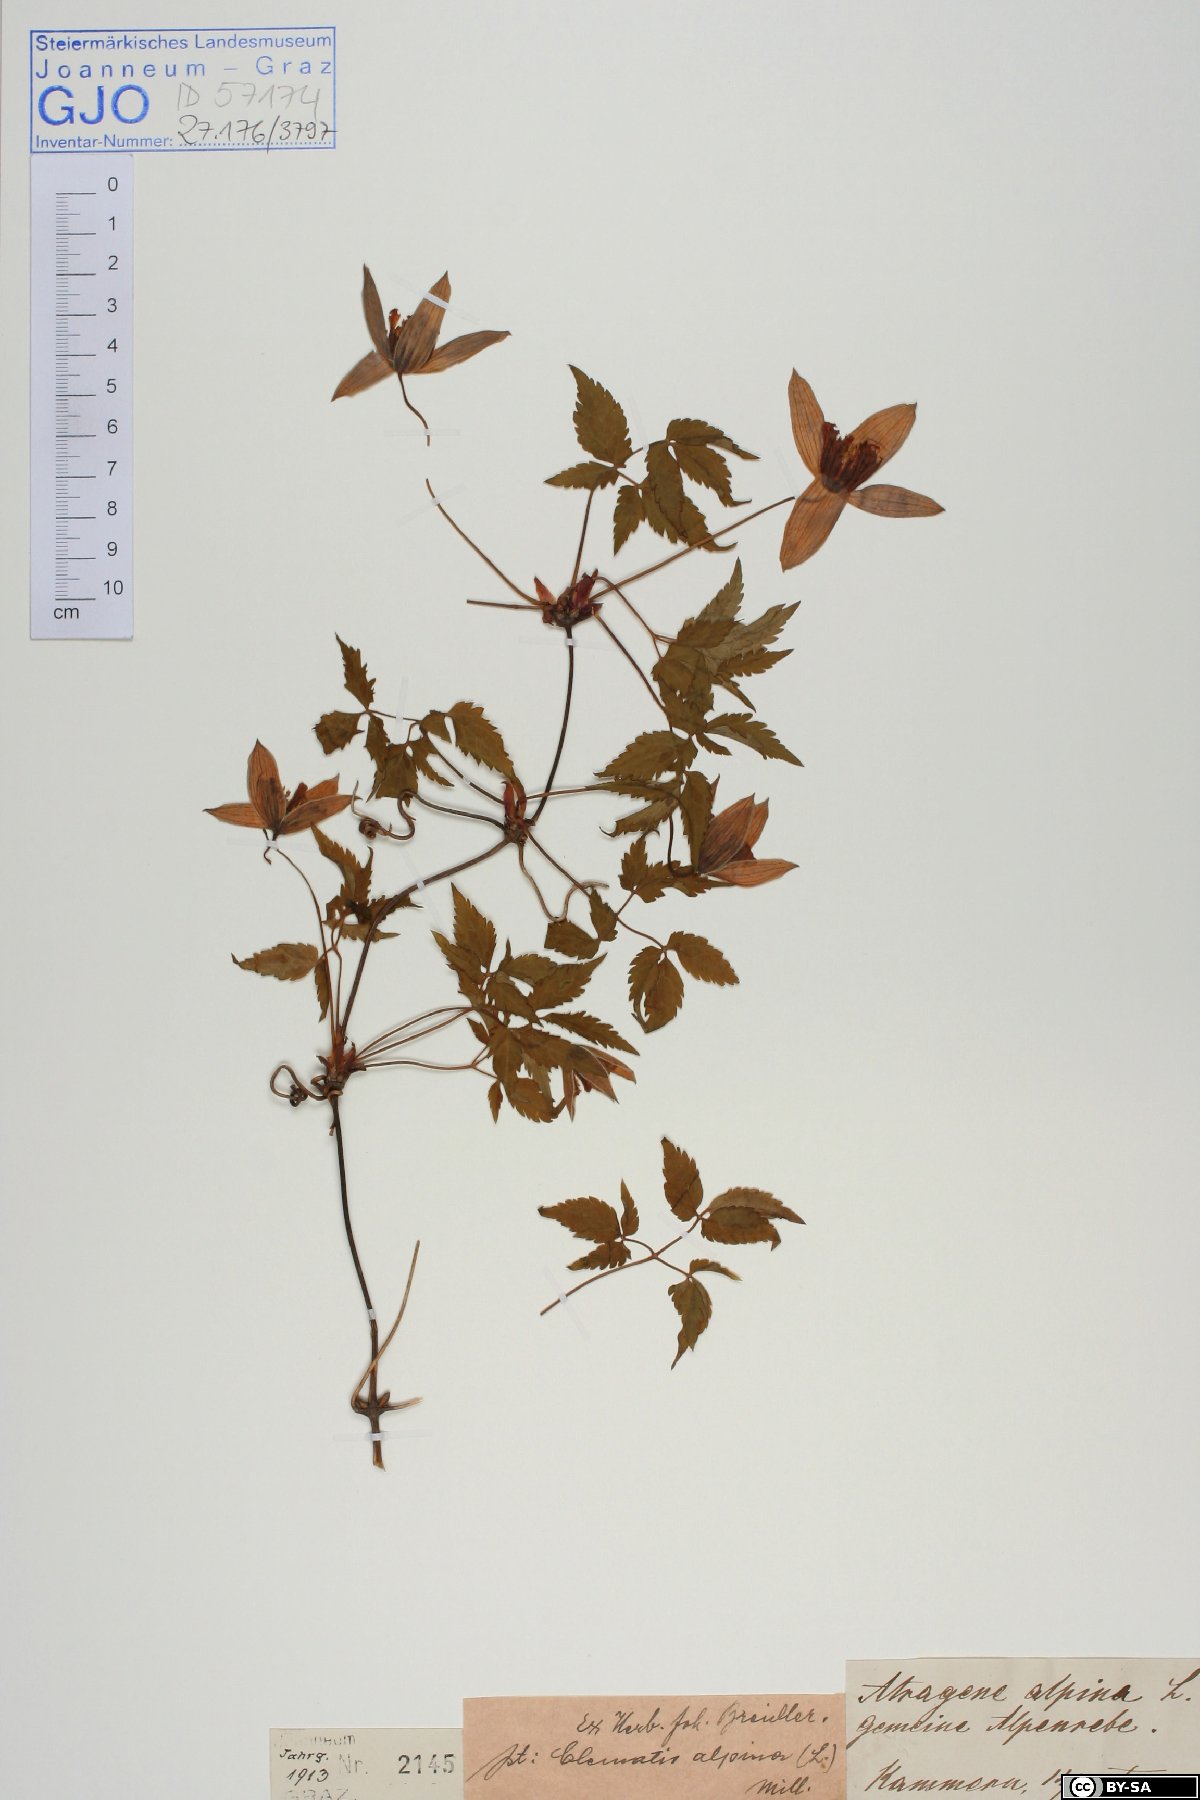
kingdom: Plantae
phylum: Tracheophyta
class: Magnoliopsida
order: Ranunculales
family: Ranunculaceae
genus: Clematis
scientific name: Clematis alpina
